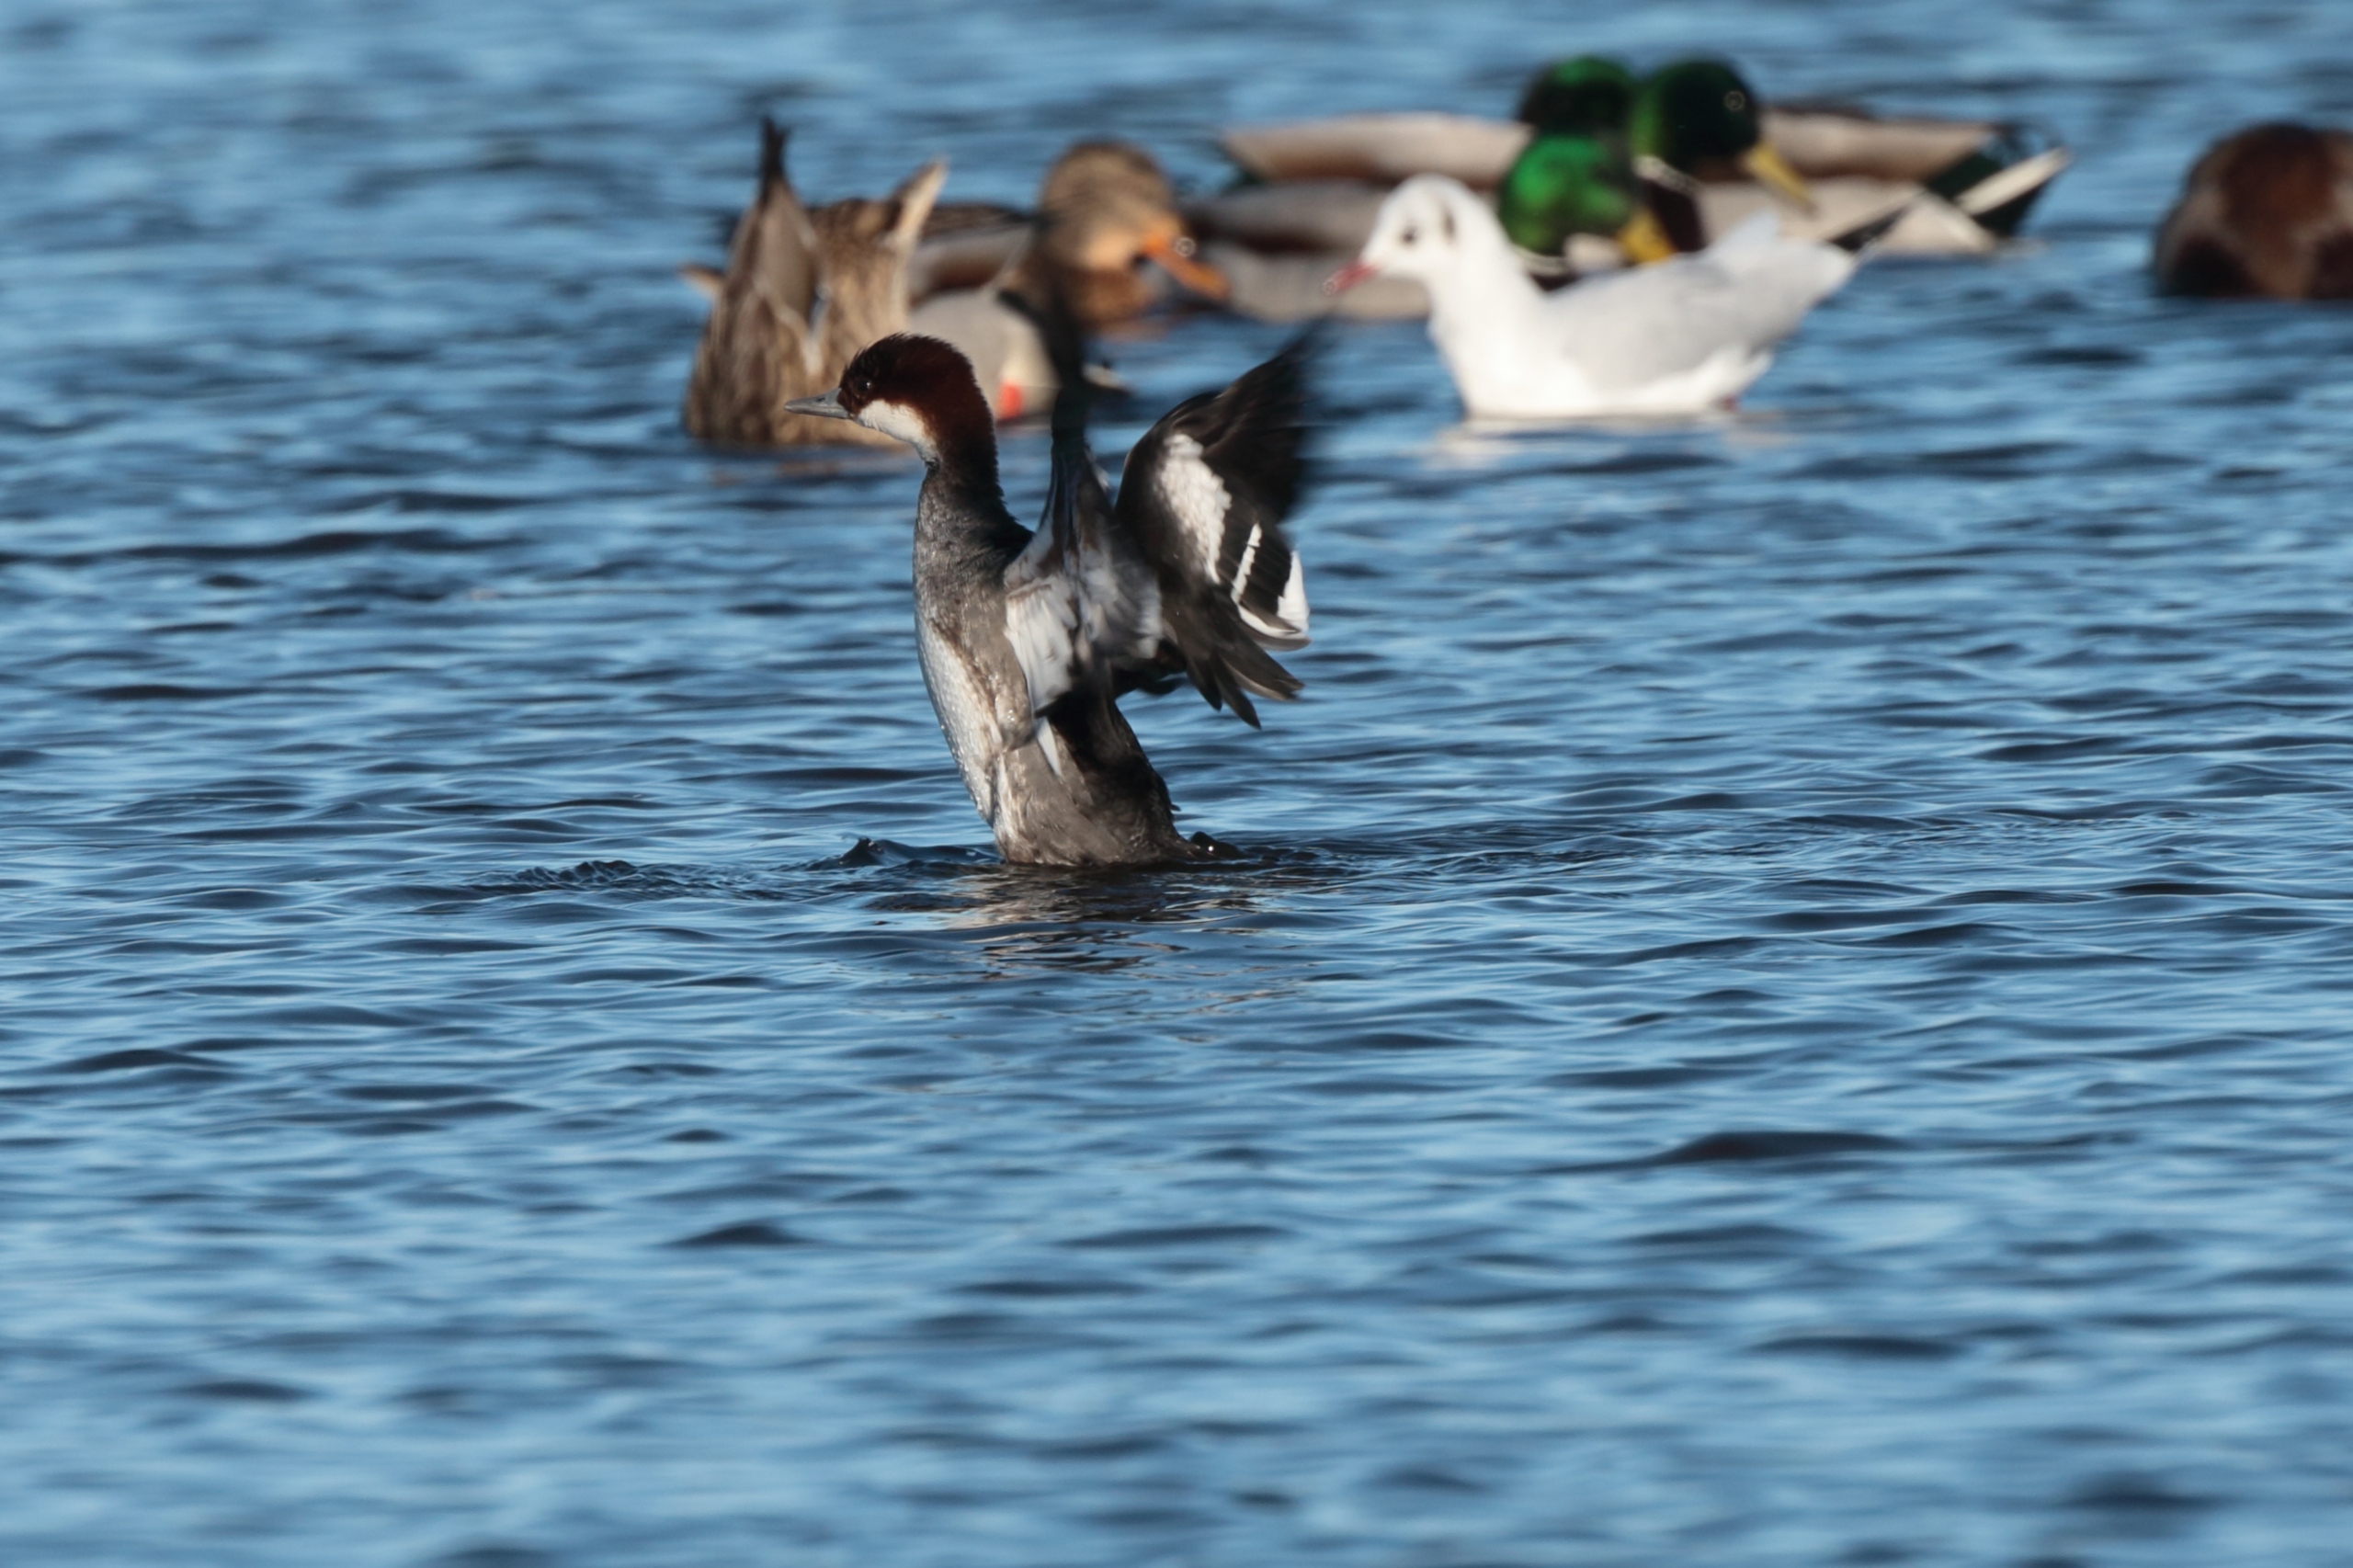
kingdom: Animalia
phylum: Chordata
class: Aves
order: Anseriformes
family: Anatidae
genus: Mergellus
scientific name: Mergellus albellus
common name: Lille skallesluger
